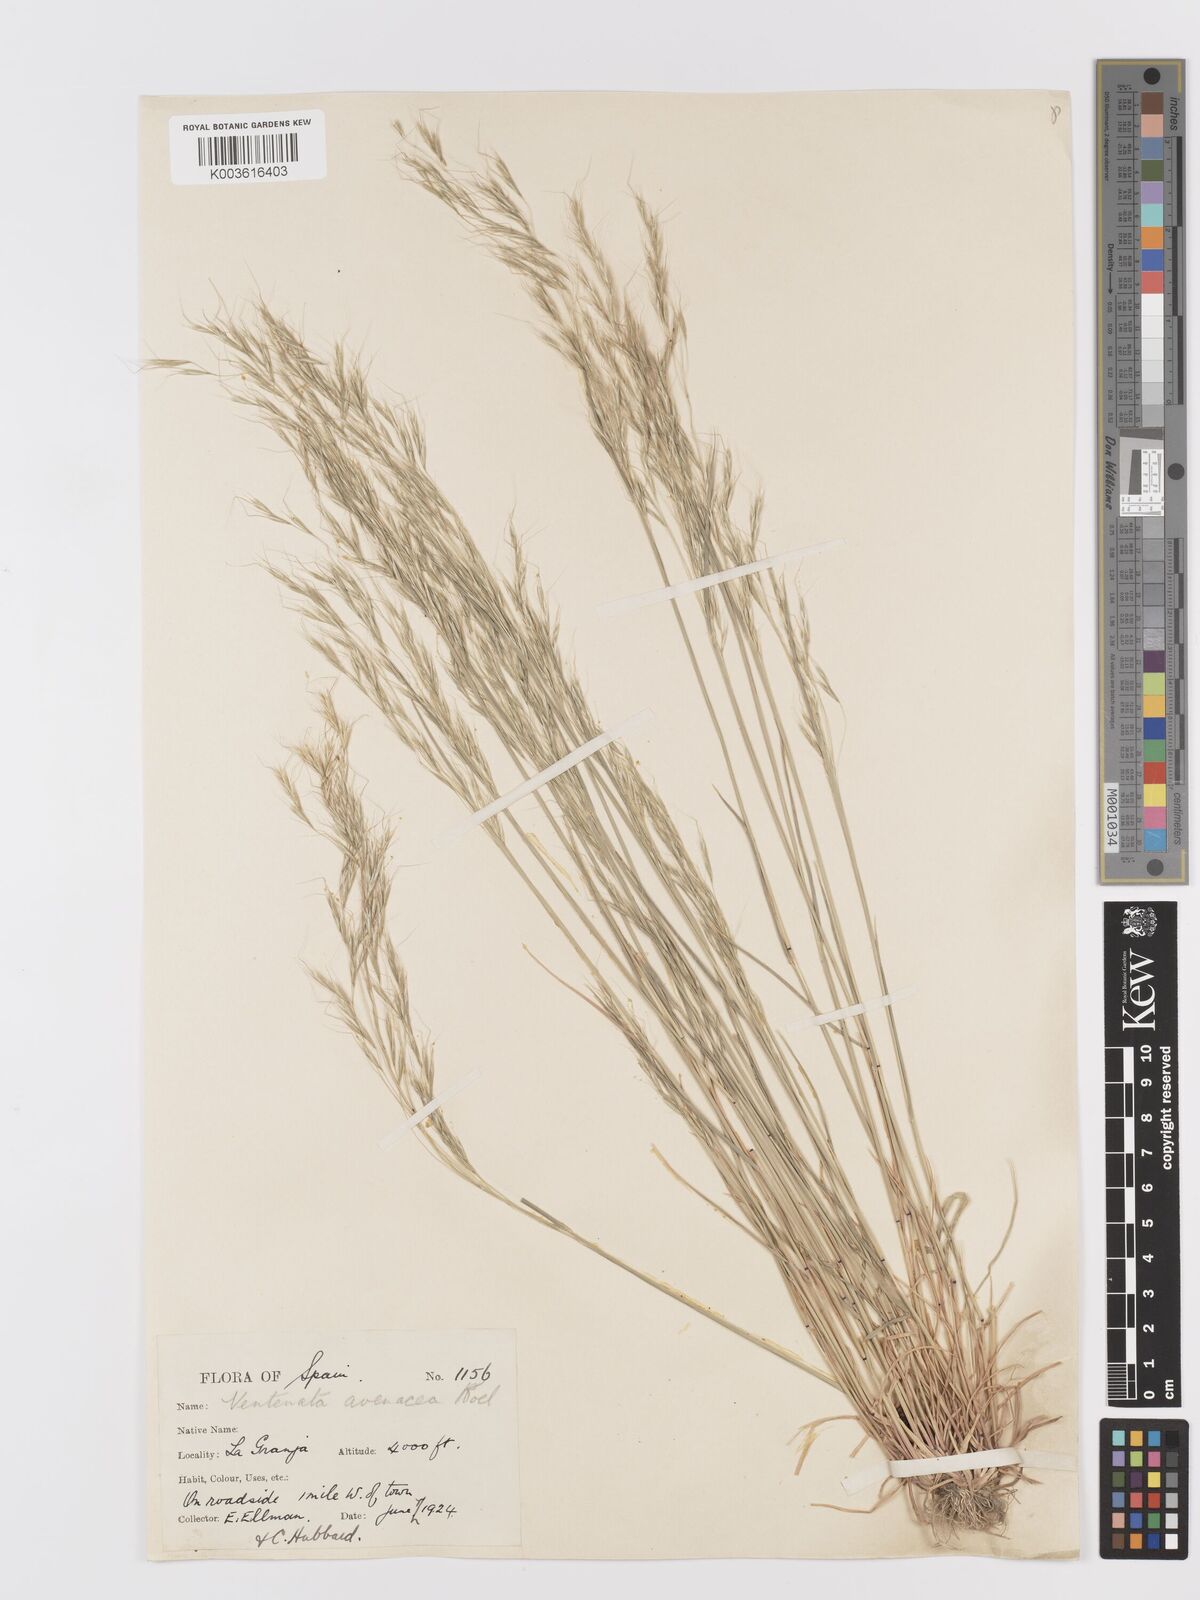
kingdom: Plantae
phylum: Tracheophyta
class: Liliopsida
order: Poales
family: Poaceae
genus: Ventenata
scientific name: Ventenata dubia
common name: North africa grass
